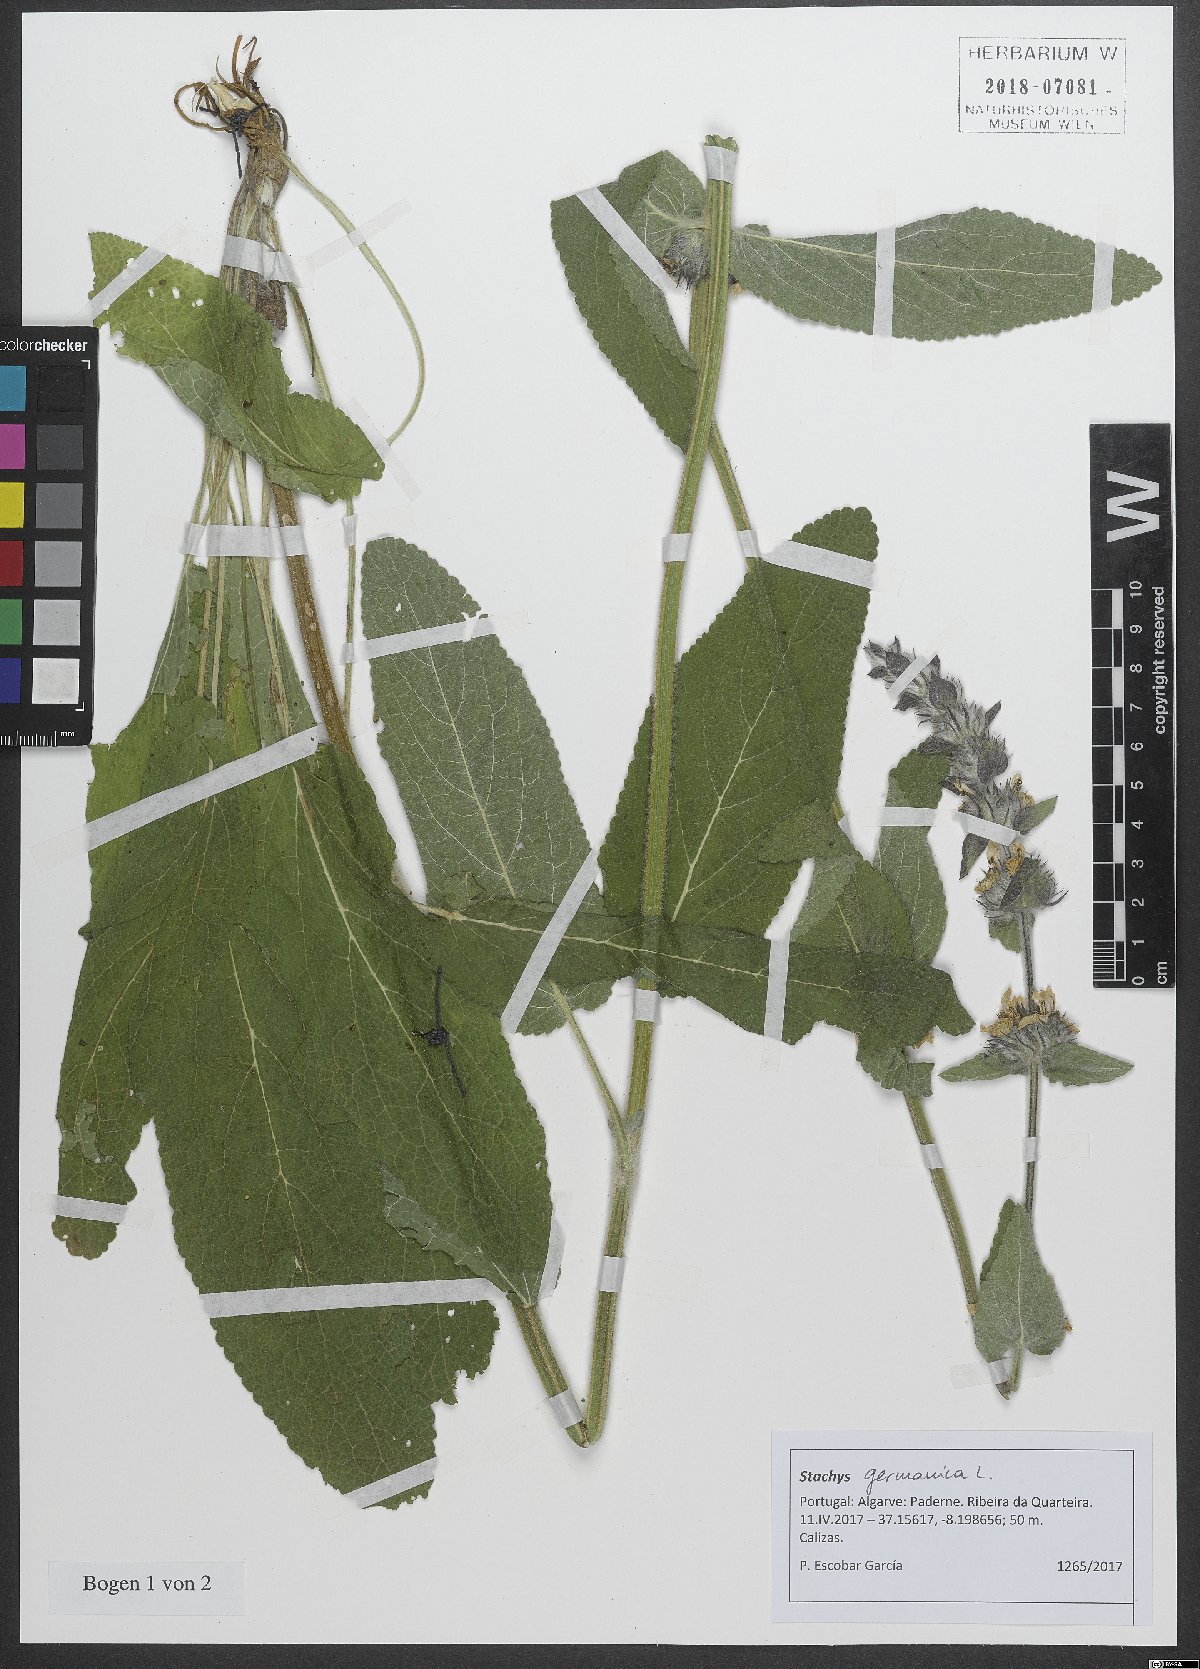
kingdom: Plantae
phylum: Tracheophyta
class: Magnoliopsida
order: Lamiales
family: Lamiaceae
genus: Stachys
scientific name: Stachys germanica
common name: Downy woundwort
